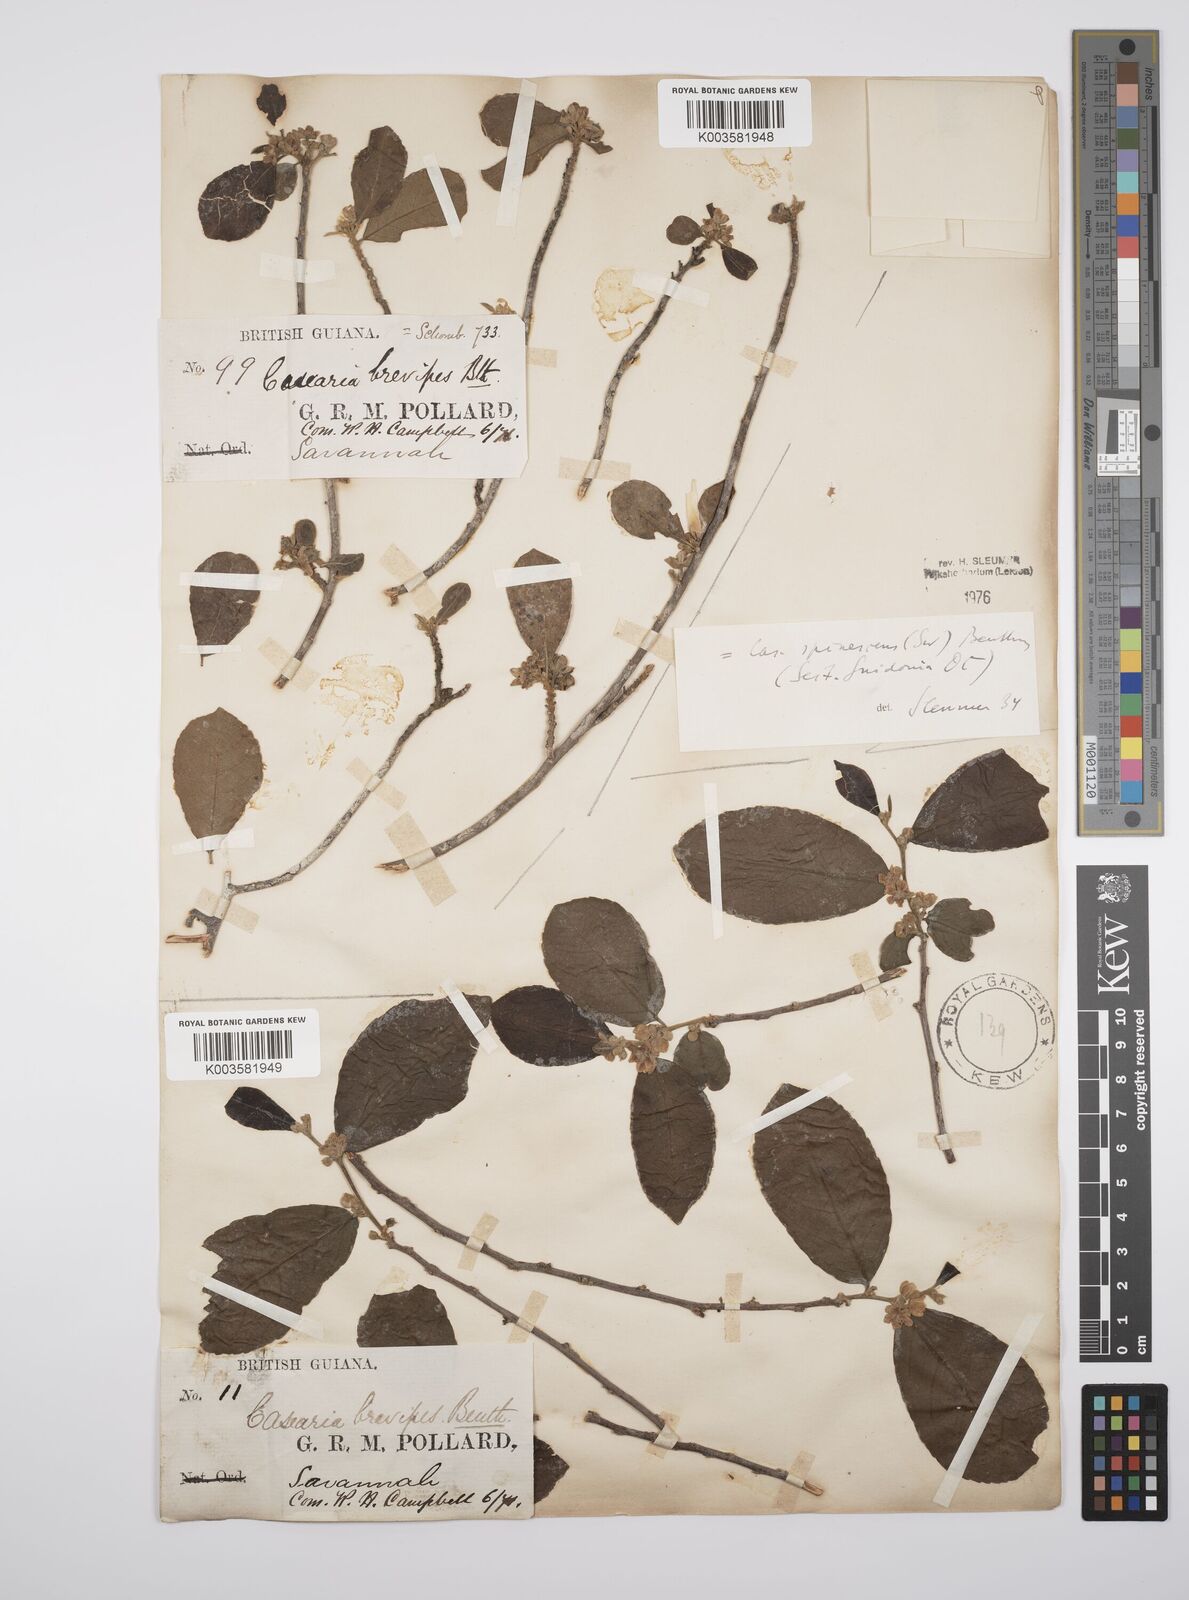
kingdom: Plantae
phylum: Tracheophyta
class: Magnoliopsida
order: Malpighiales
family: Salicaceae
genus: Casearia
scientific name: Casearia spinescens
